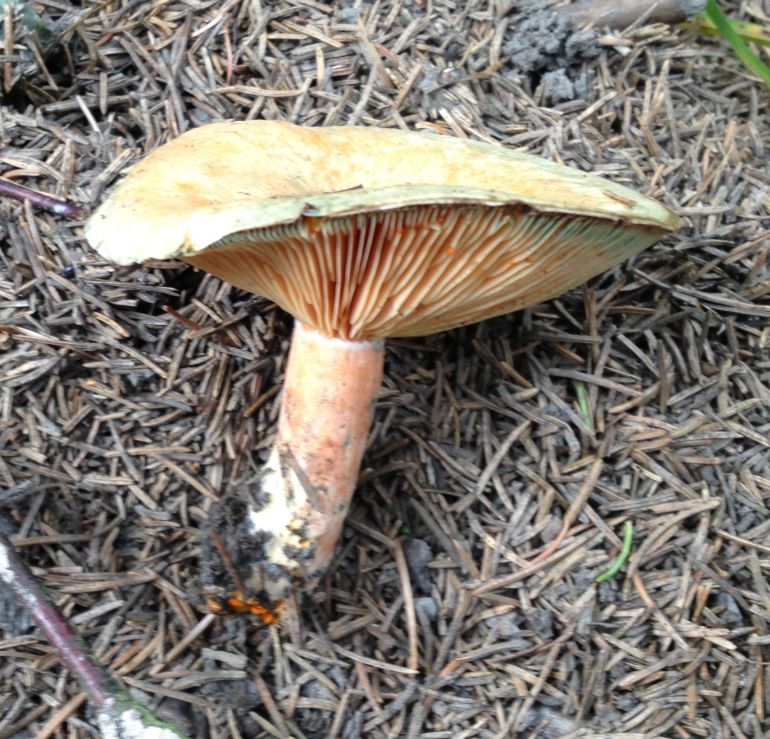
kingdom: Fungi
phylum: Basidiomycota
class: Agaricomycetes
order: Russulales
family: Russulaceae
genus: Lactarius
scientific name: Lactarius deterrimus
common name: gran-mælkehat
